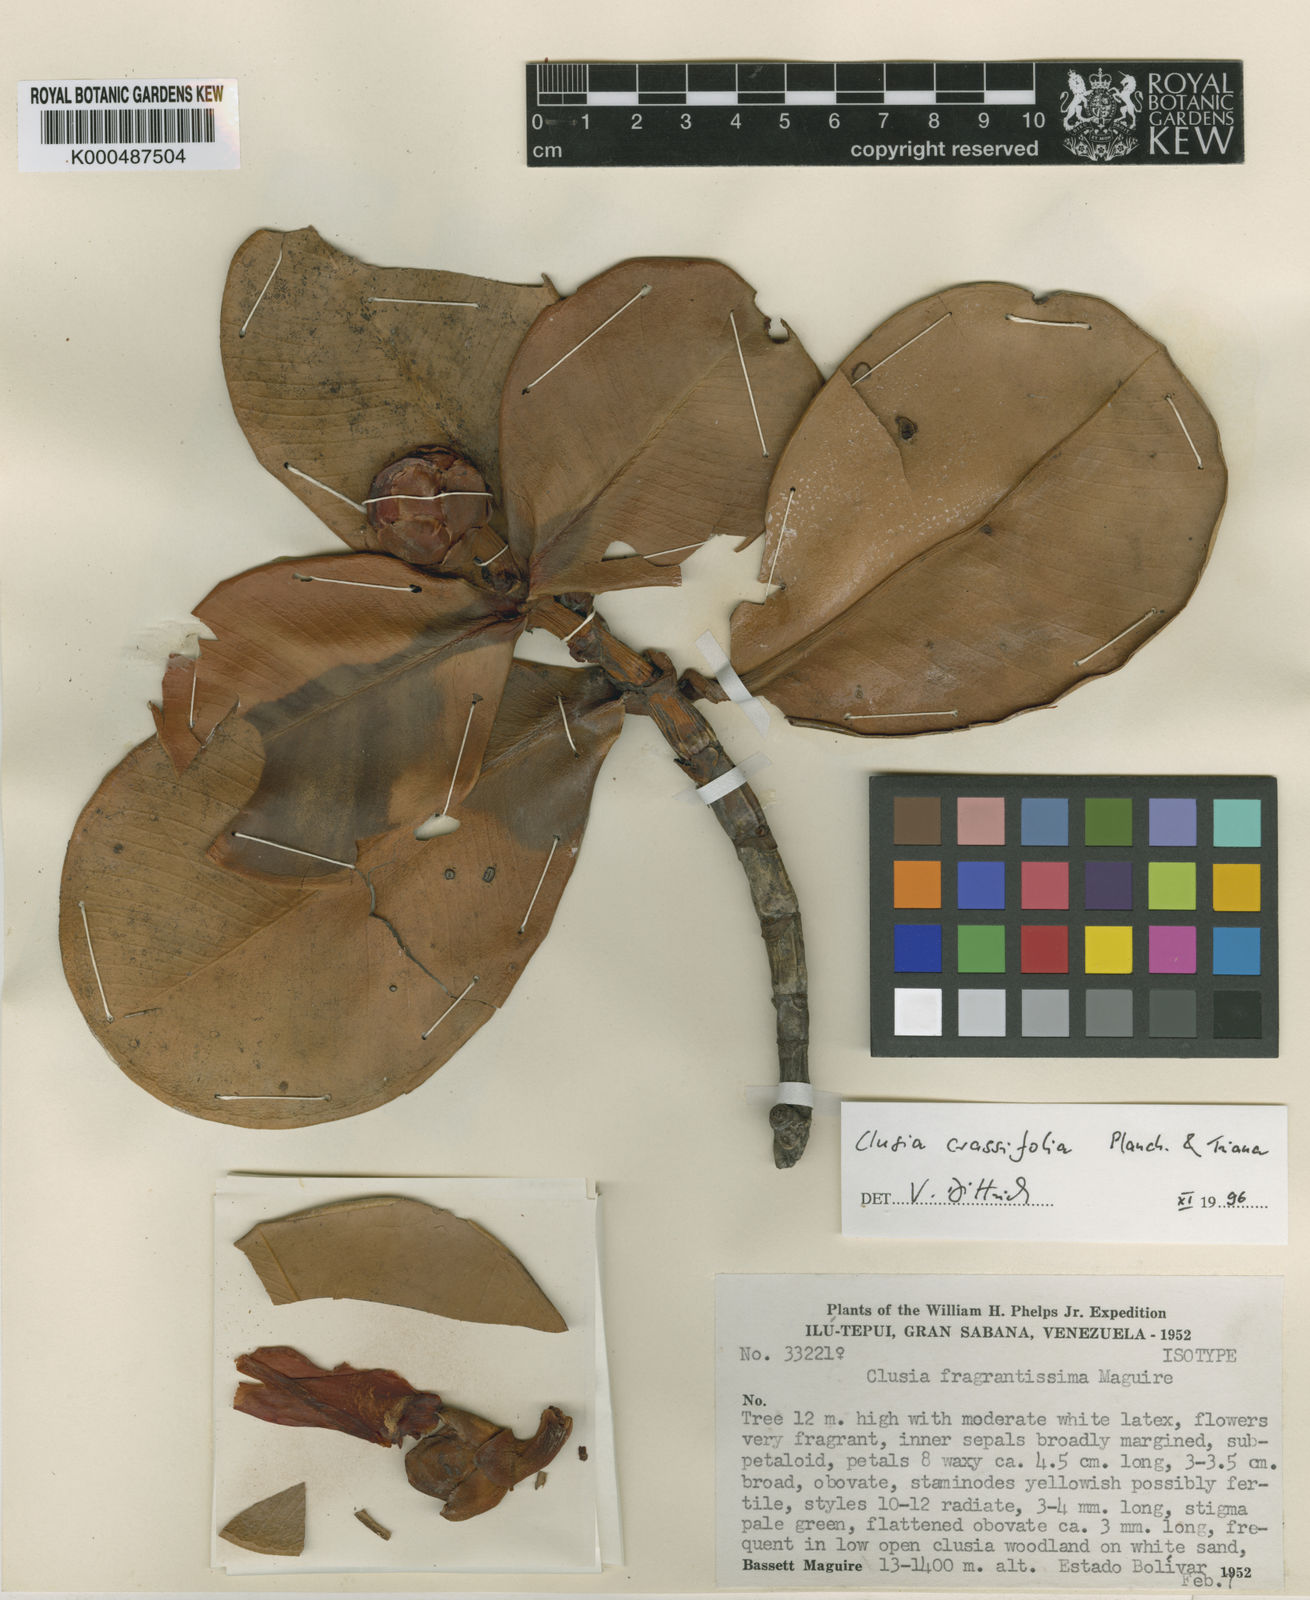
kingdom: Plantae
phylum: Tracheophyta
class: Magnoliopsida
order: Malpighiales
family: Clusiaceae
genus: Clusia
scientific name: Clusia
